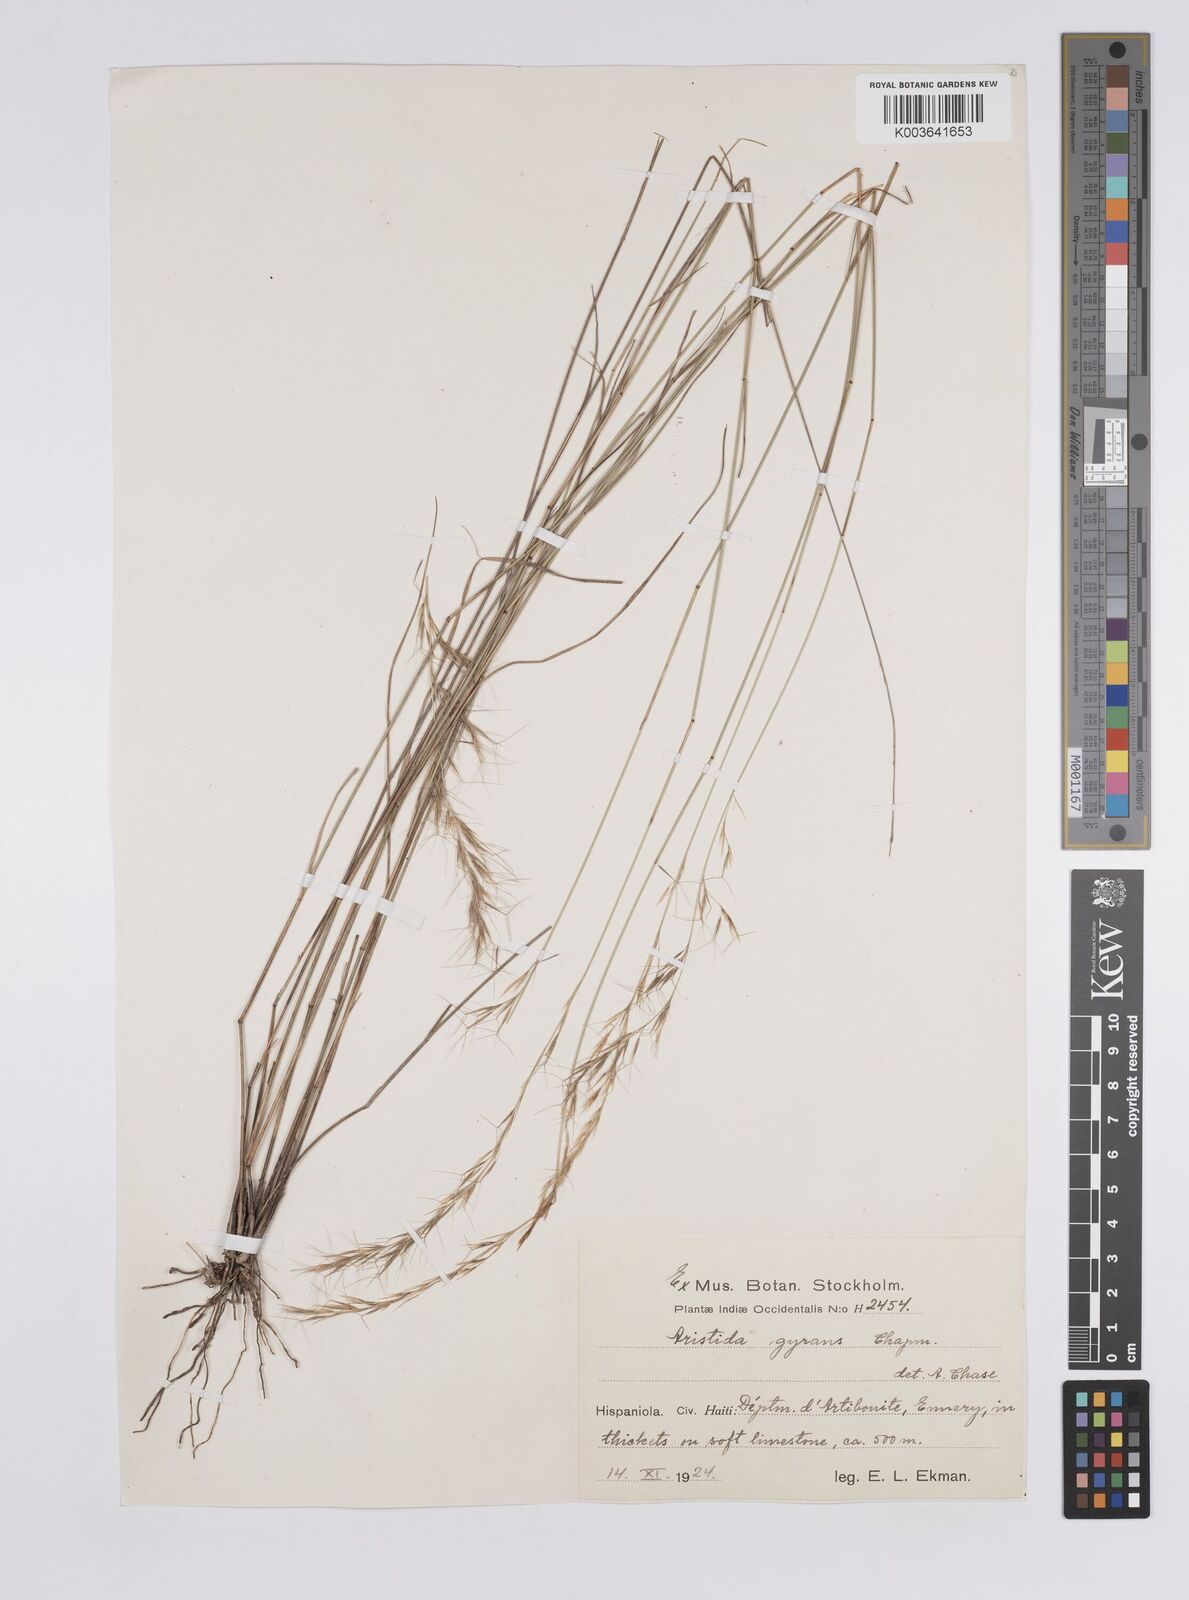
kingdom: Plantae
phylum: Tracheophyta
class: Liliopsida
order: Poales
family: Poaceae
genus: Aristida
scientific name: Aristida vilfifolia
